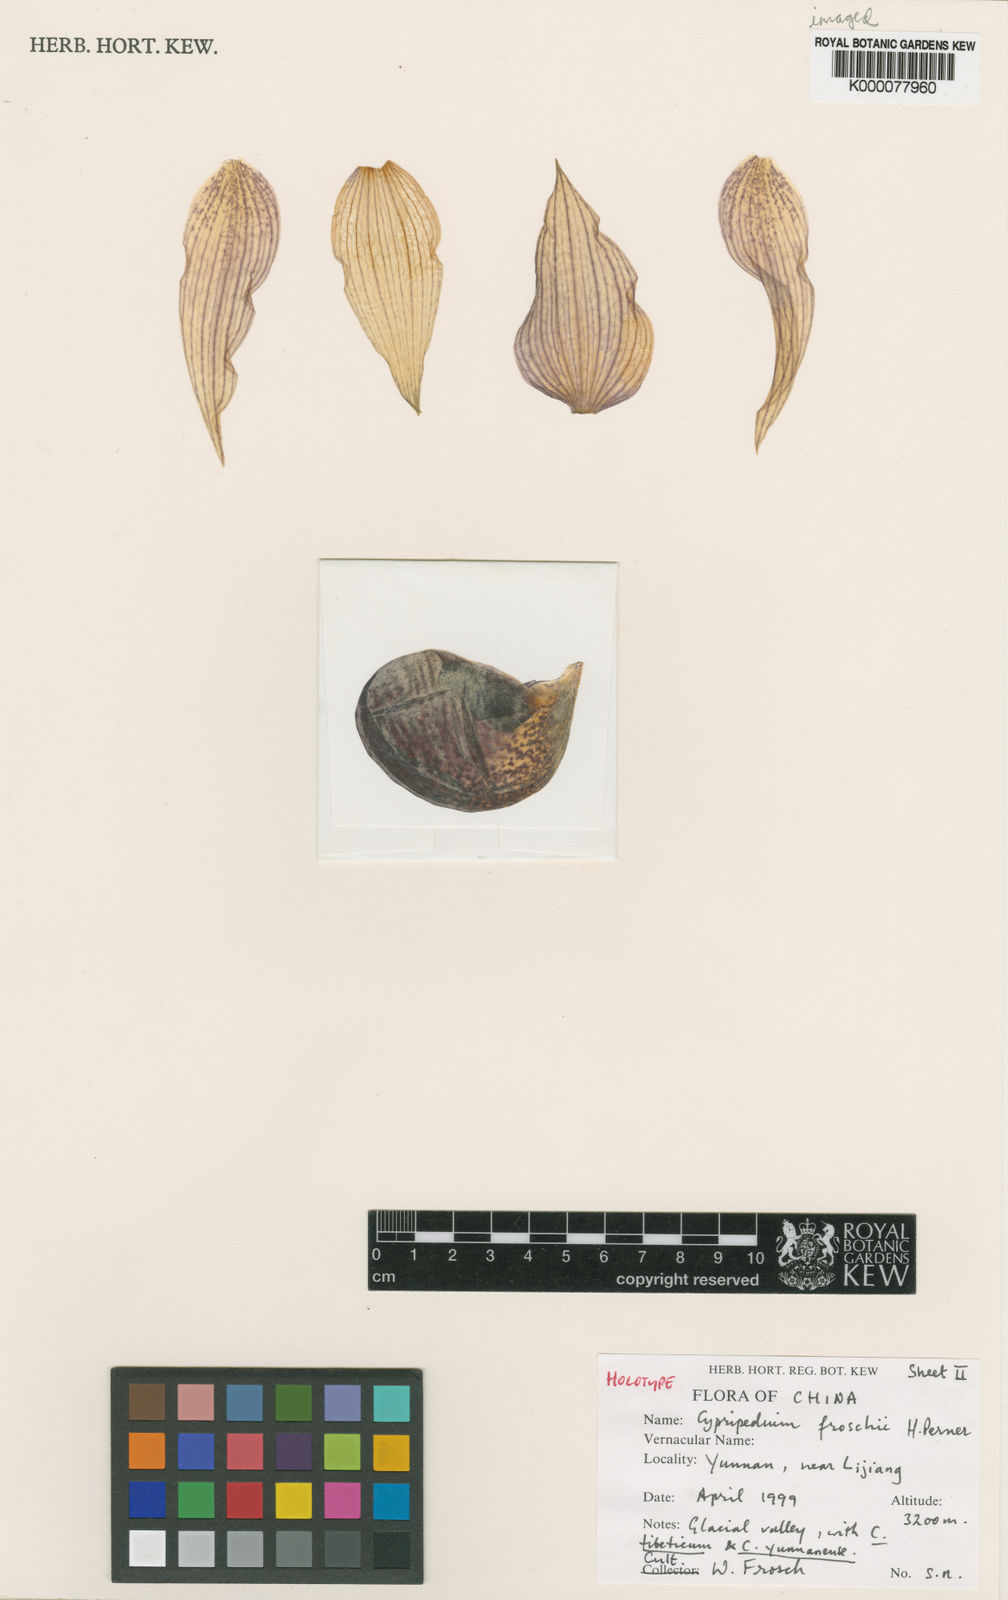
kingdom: Plantae
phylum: Tracheophyta
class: Liliopsida
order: Asparagales
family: Orchidaceae
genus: Cypripedium
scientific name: Cypripedium tibeticum
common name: Tibetan cypripedium
